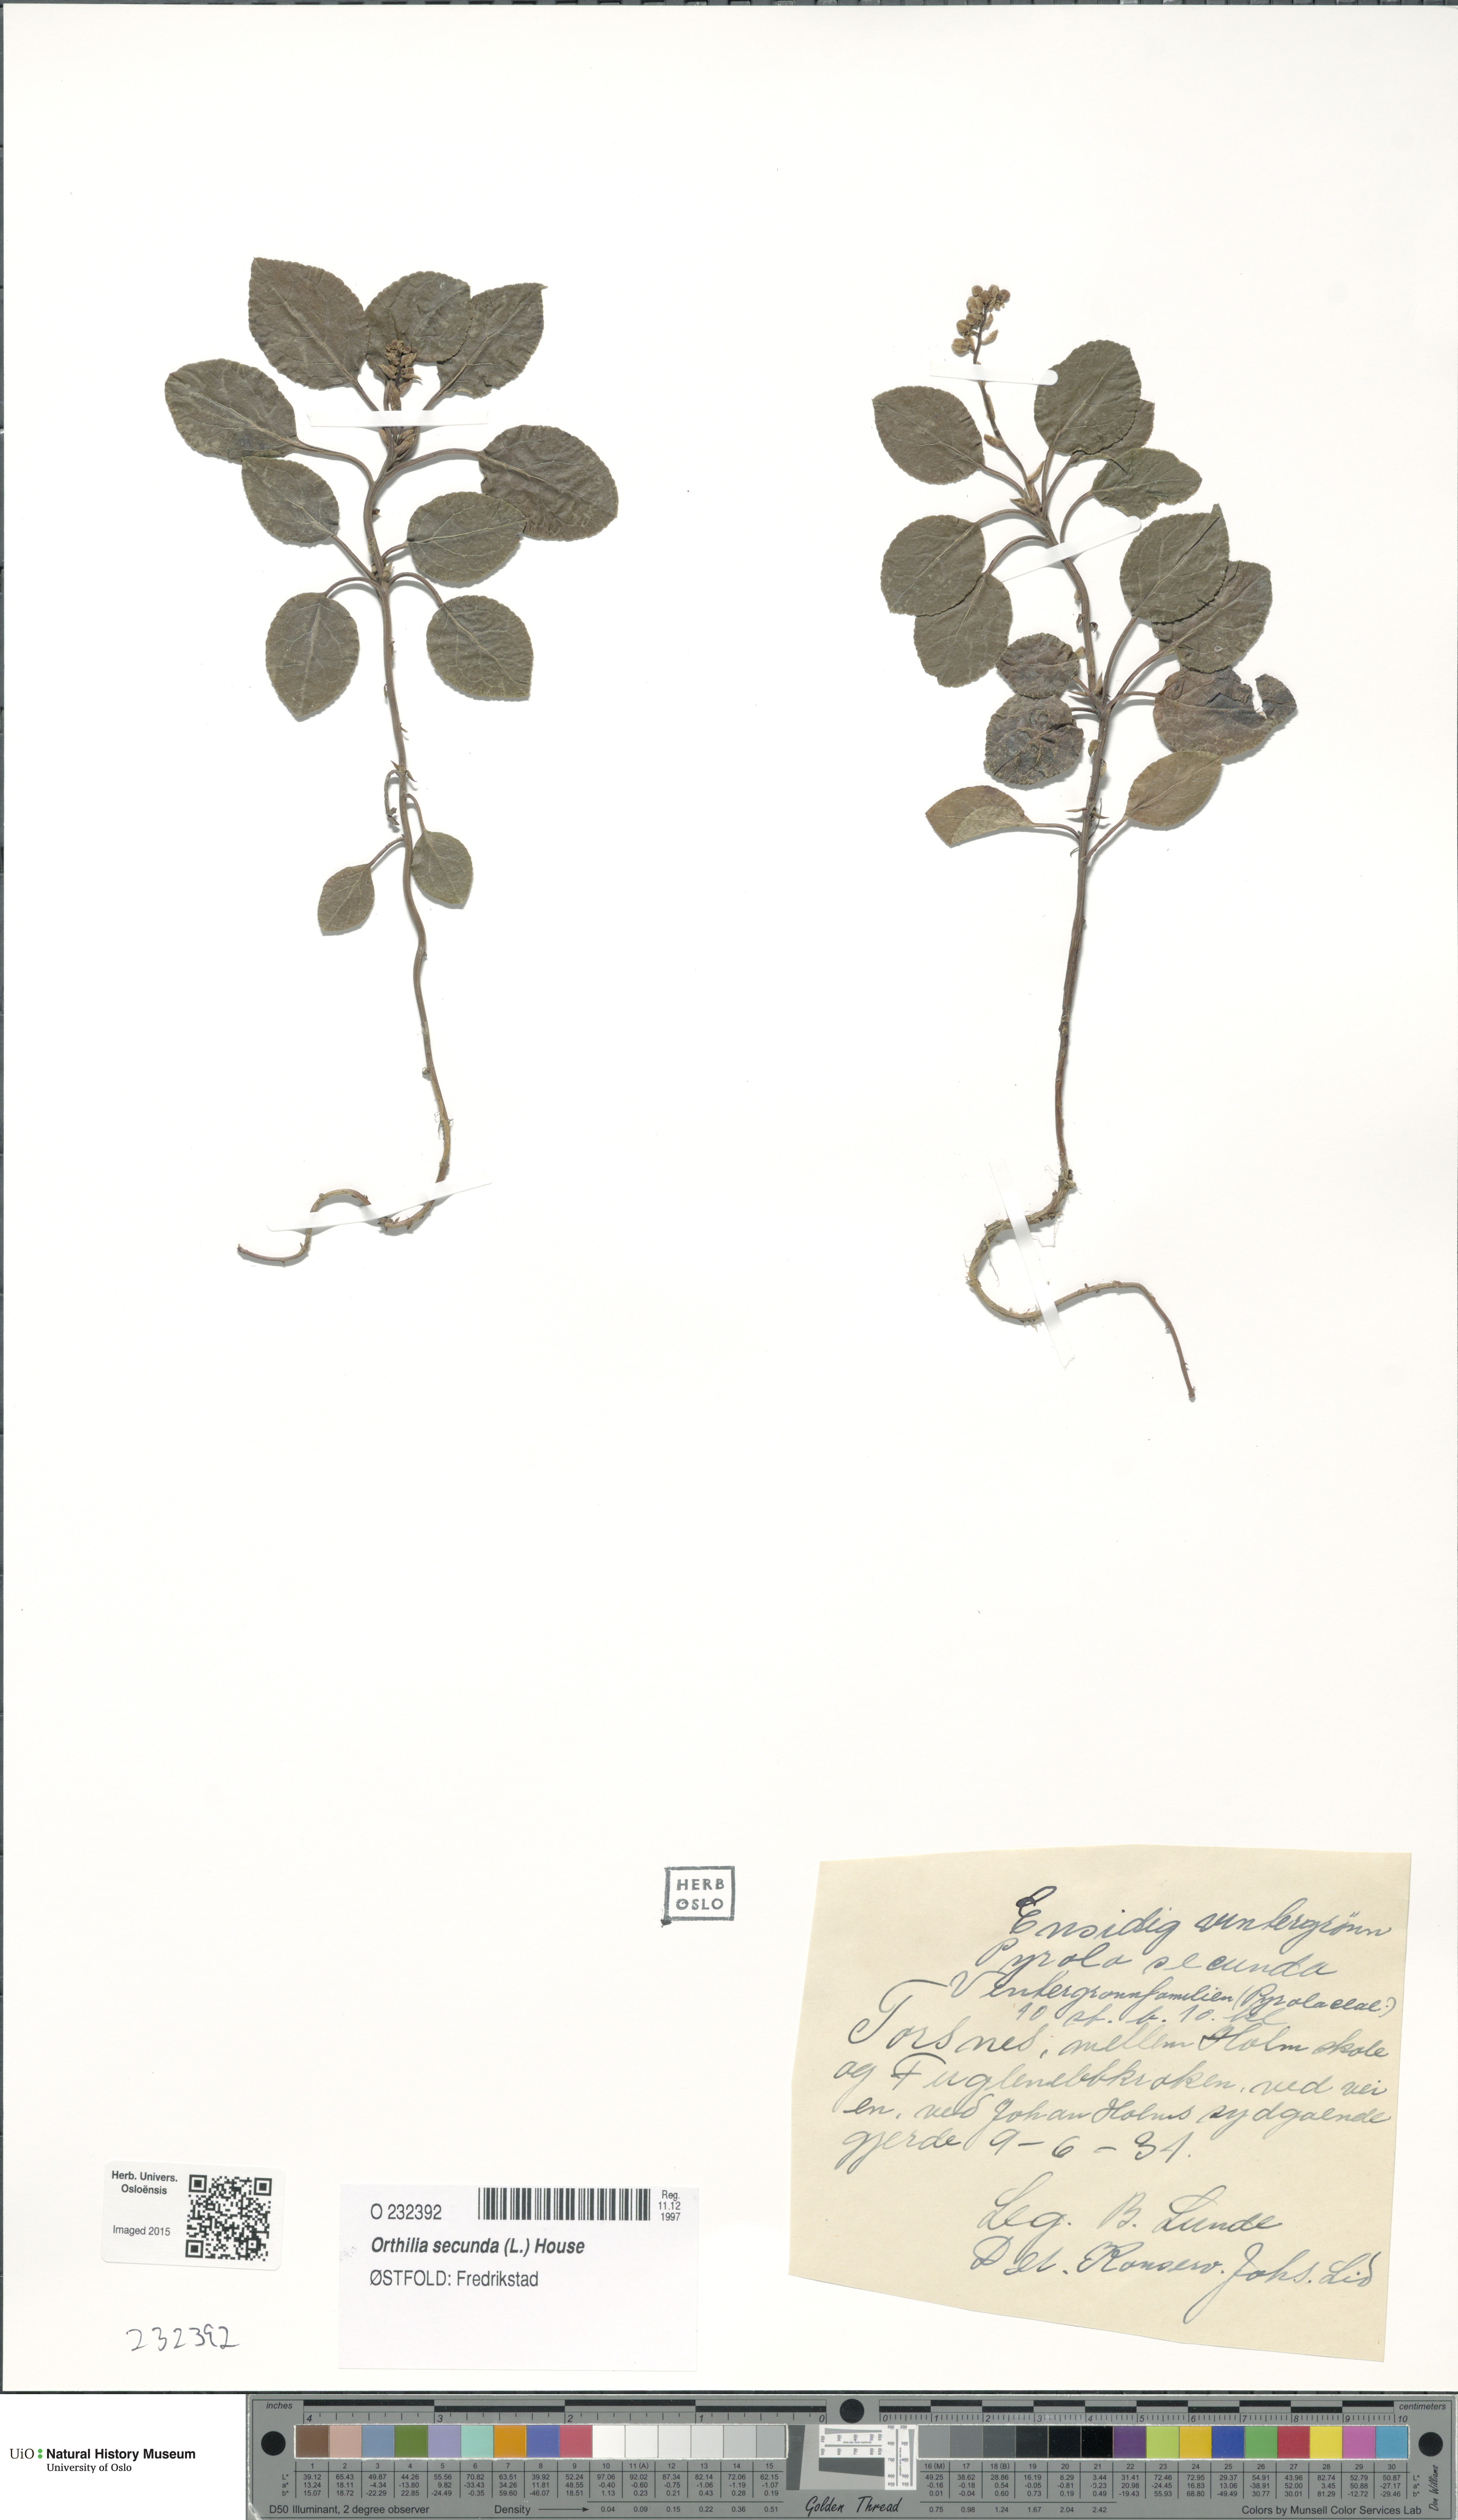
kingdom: Plantae
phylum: Tracheophyta
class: Magnoliopsida
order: Ericales
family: Ericaceae
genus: Orthilia
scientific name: Orthilia secunda
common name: One-sided orthilia
